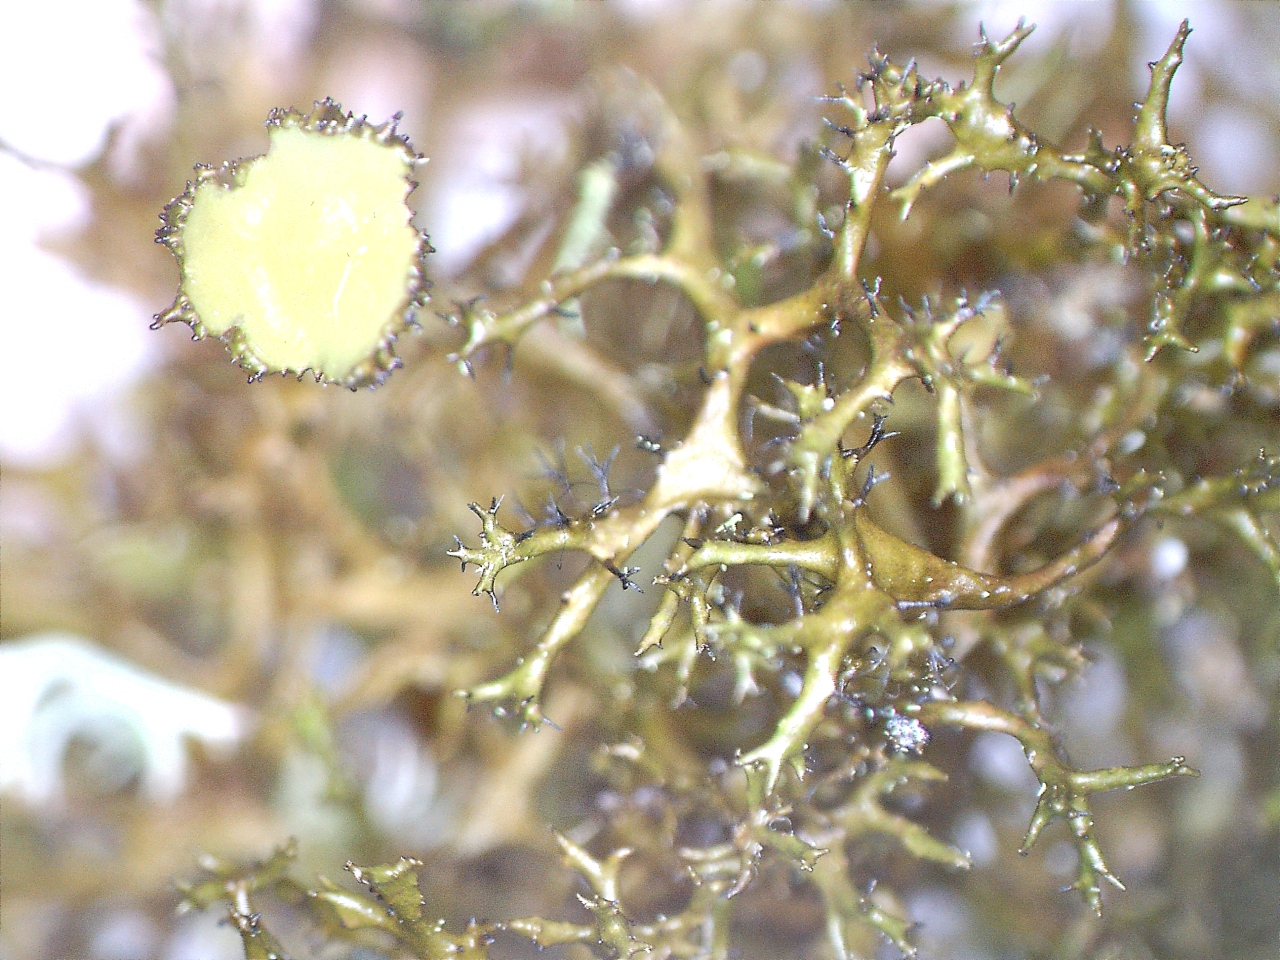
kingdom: Fungi
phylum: Ascomycota
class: Lecanoromycetes
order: Lecanorales
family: Parmeliaceae
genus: Cetraria
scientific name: Cetraria muricata
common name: tue-tjørnelav
